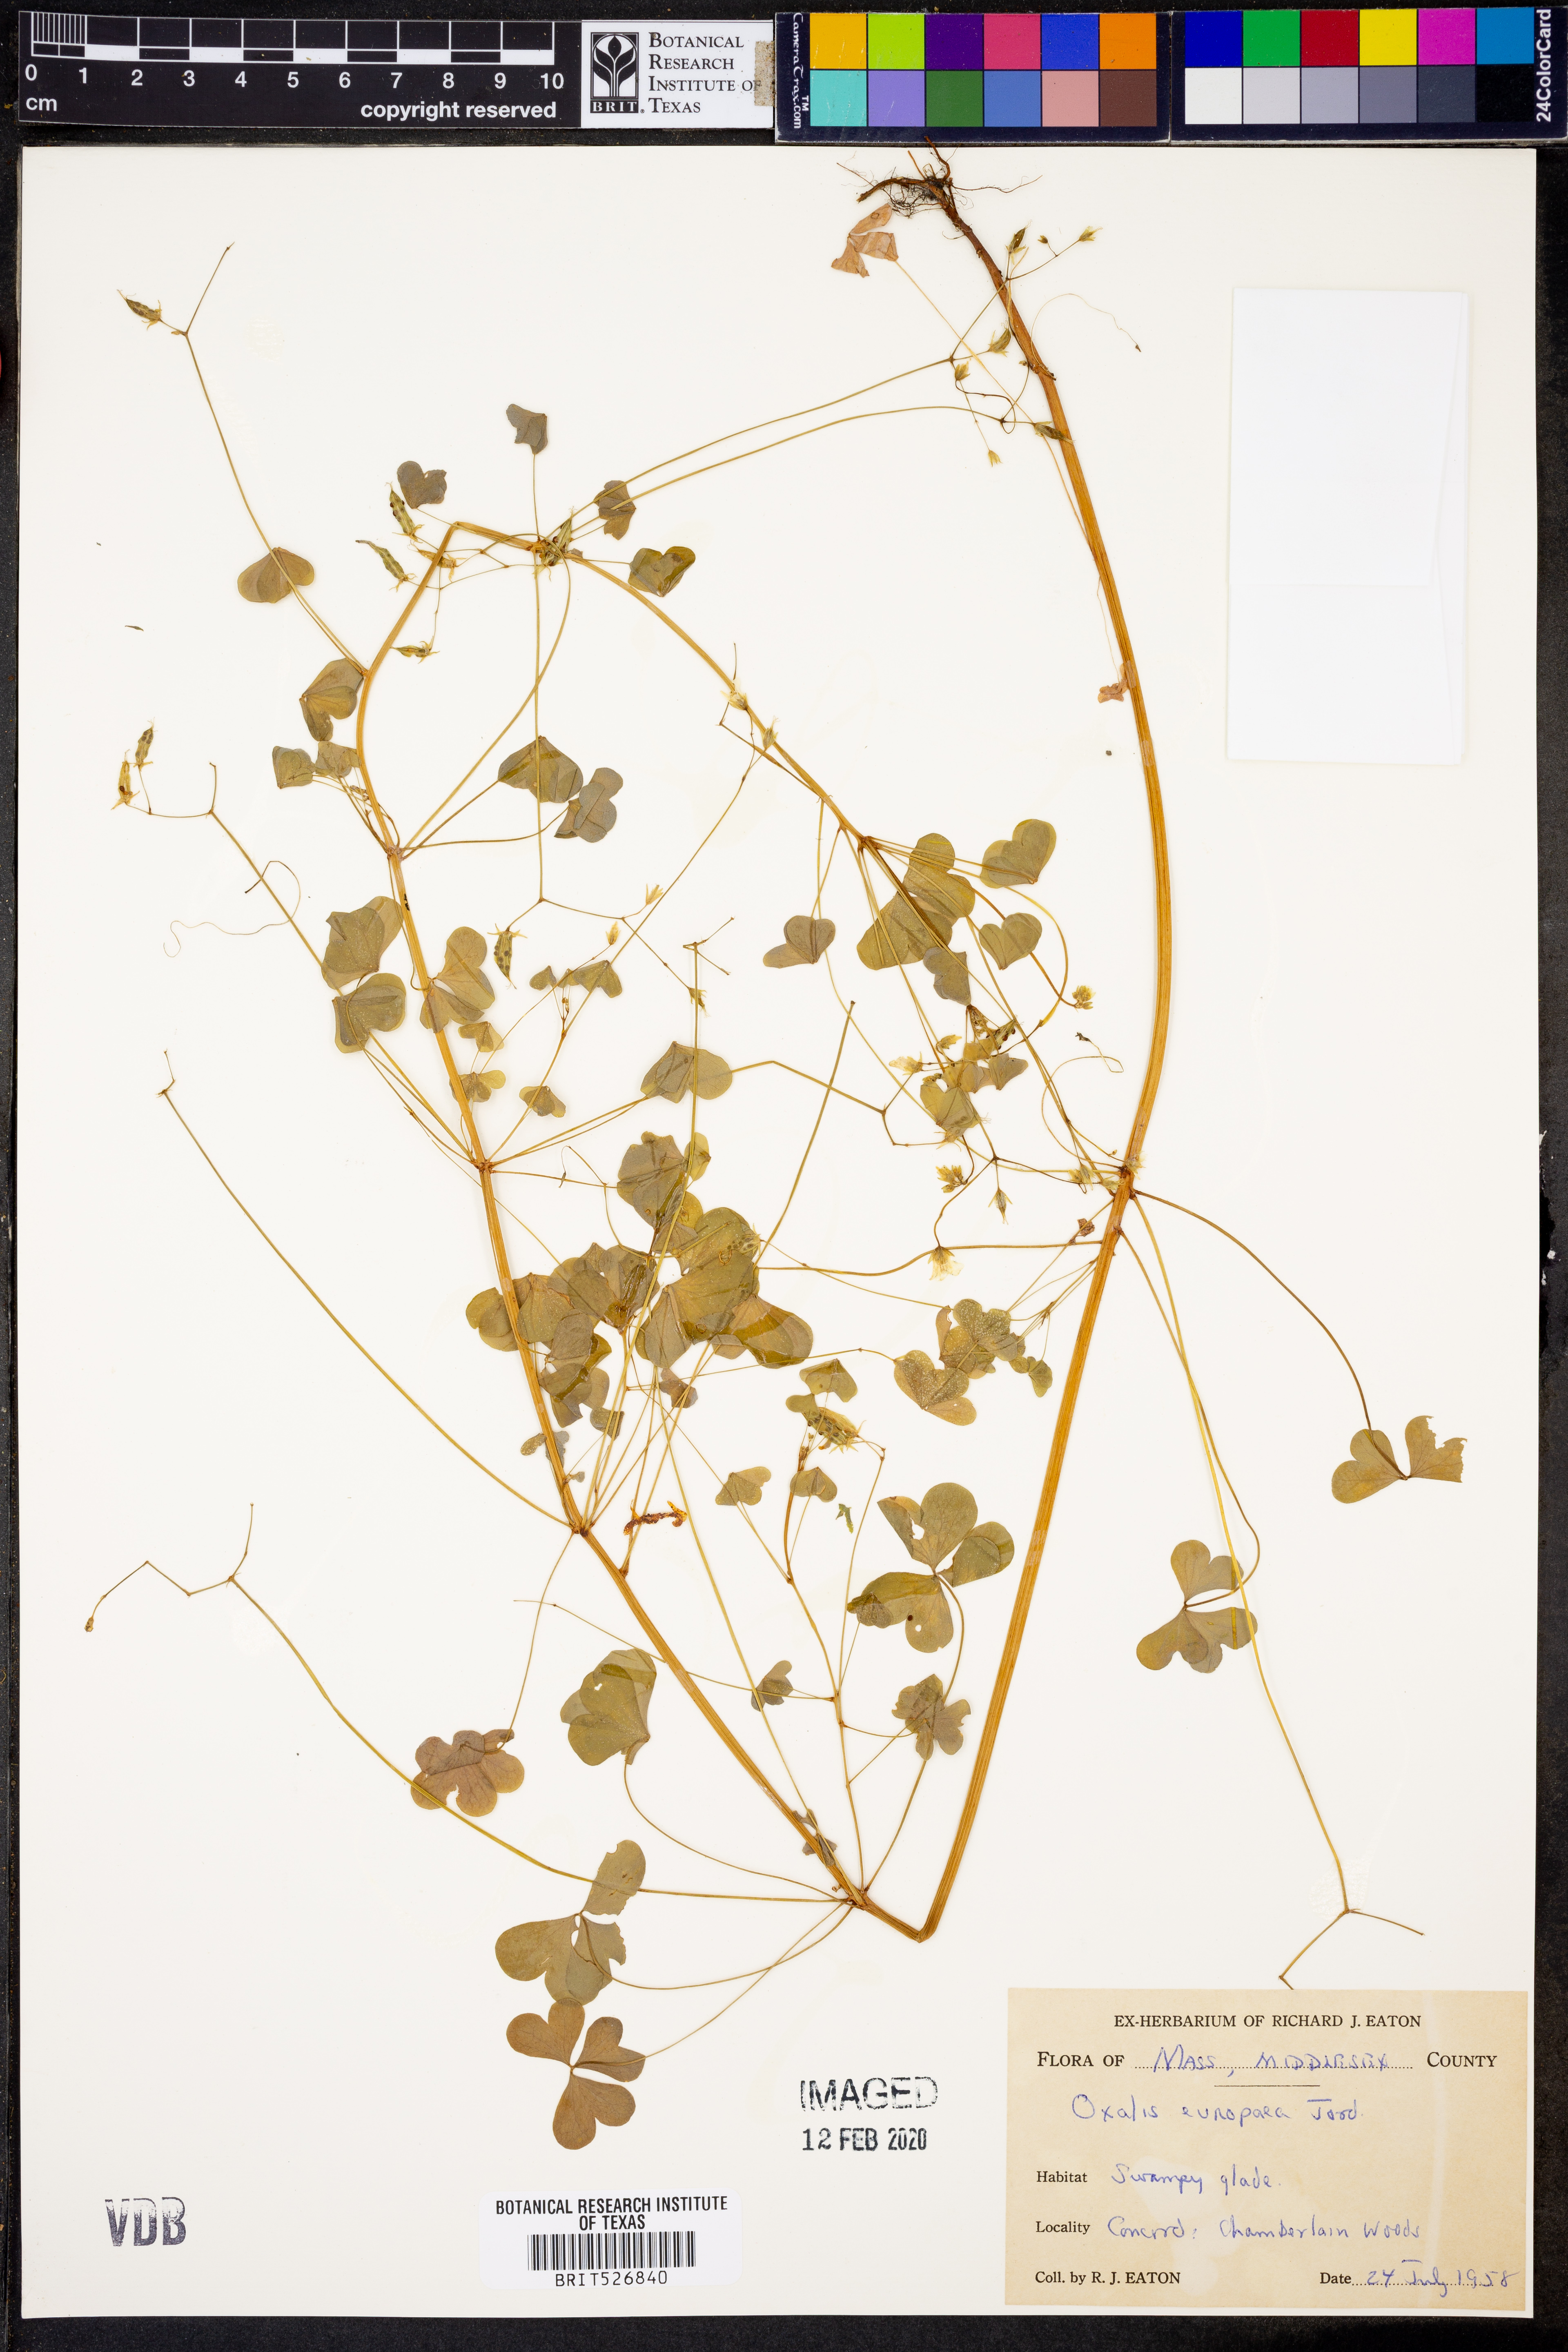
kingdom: Plantae
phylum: Tracheophyta
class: Magnoliopsida
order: Oxalidales
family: Oxalidaceae
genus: Oxalis
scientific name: Oxalis stricta
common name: Upright yellow-sorrel
